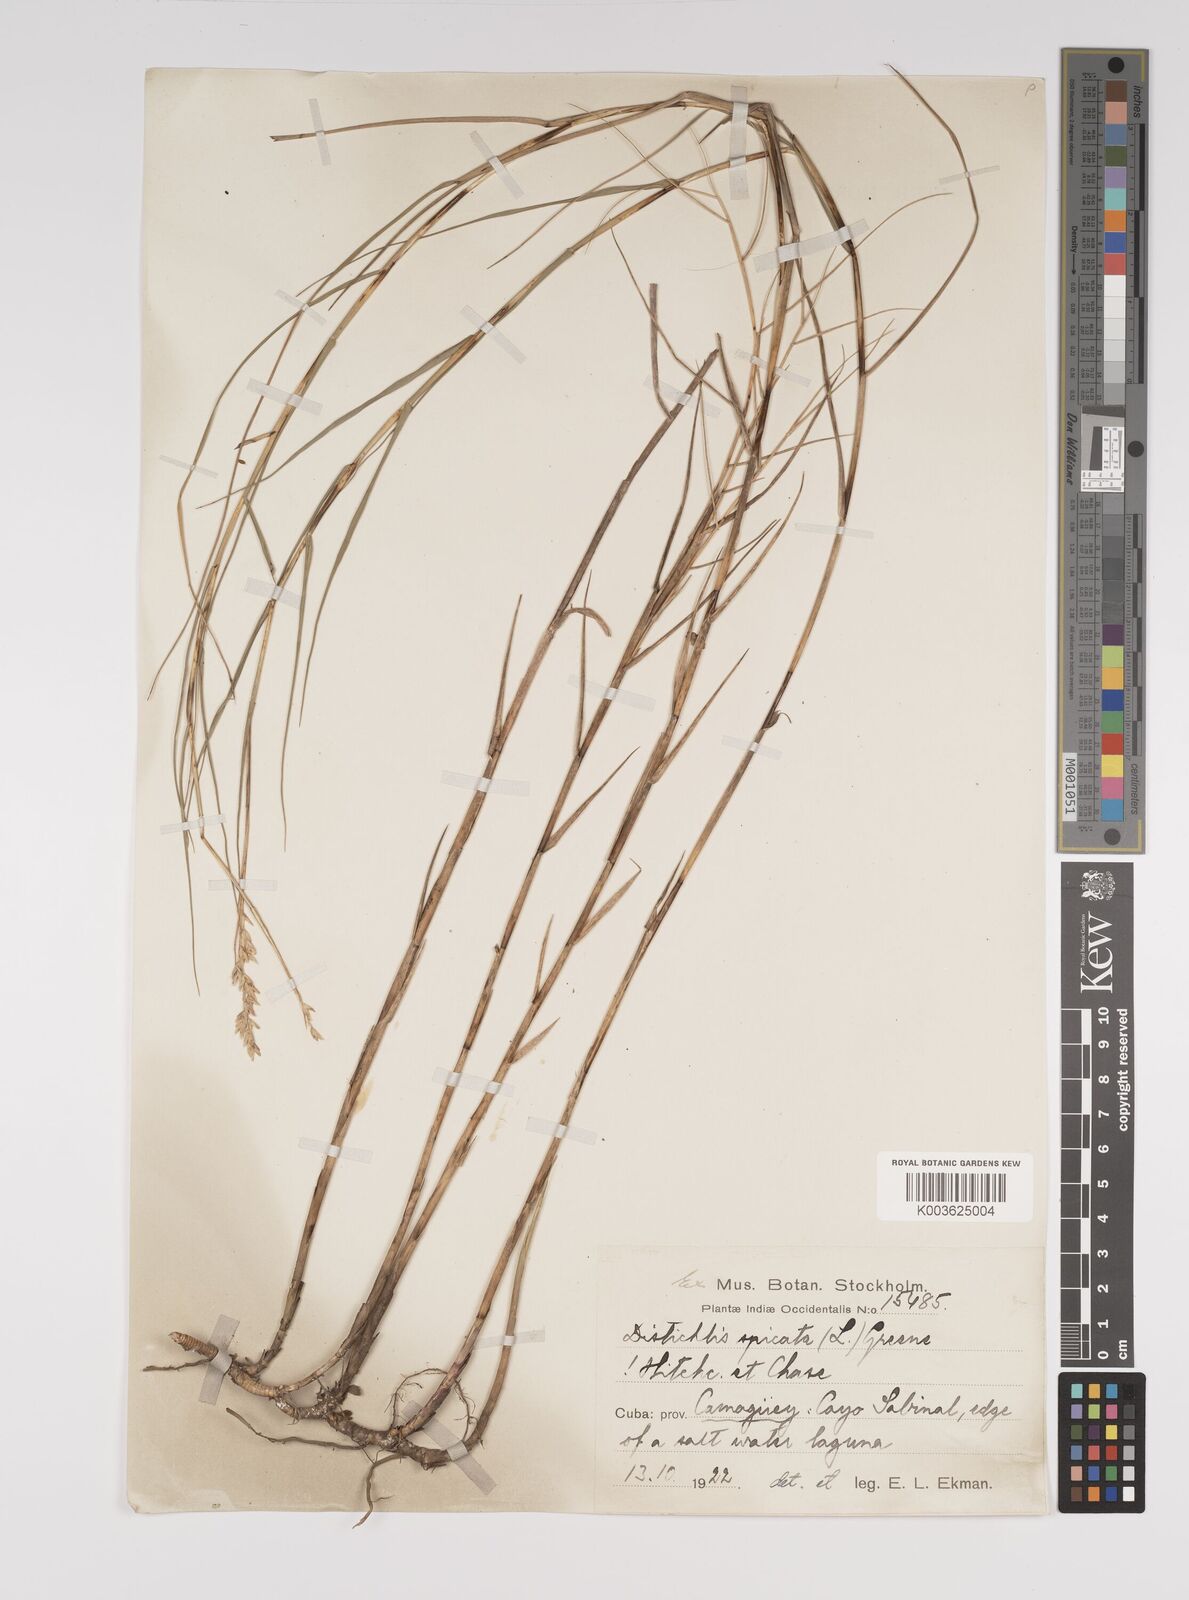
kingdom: Plantae
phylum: Tracheophyta
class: Liliopsida
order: Poales
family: Poaceae
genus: Distichlis
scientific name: Distichlis spicata
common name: Saltgrass
